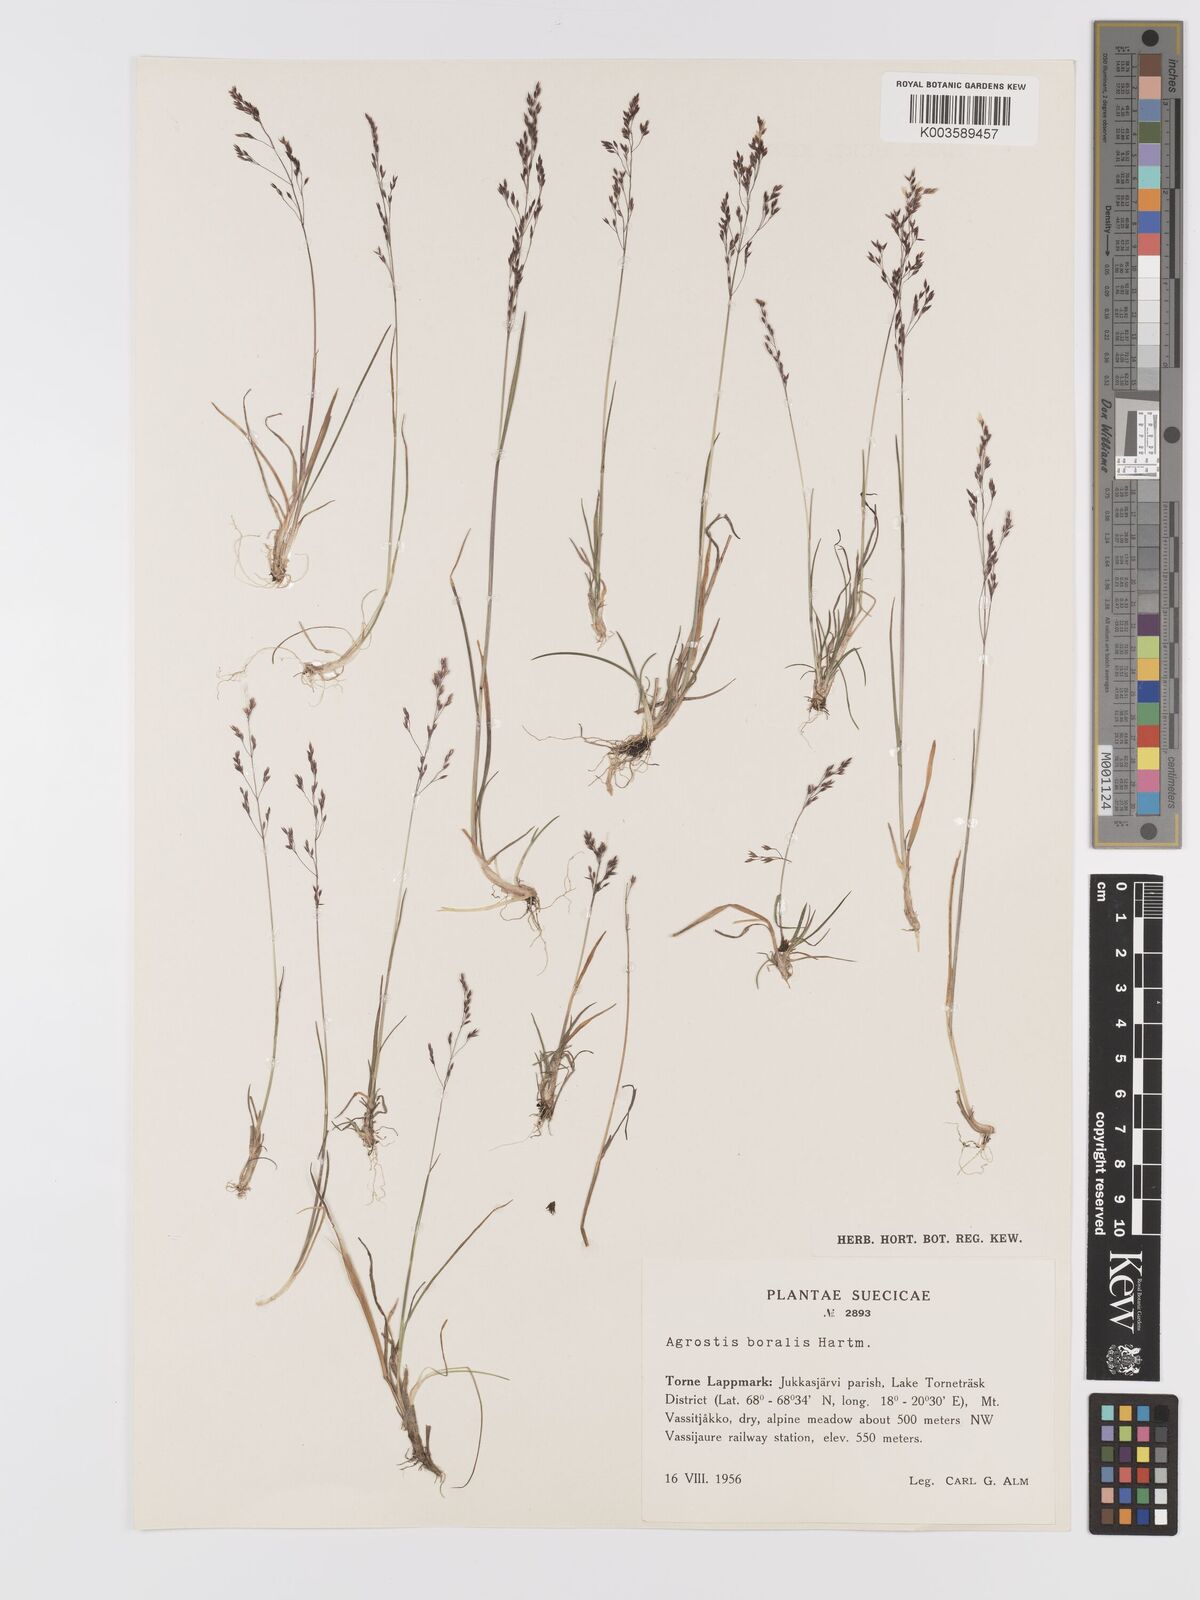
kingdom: Plantae
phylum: Tracheophyta
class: Liliopsida
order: Poales
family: Poaceae
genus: Agrostis
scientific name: Agrostis canina
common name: Velvet bent
